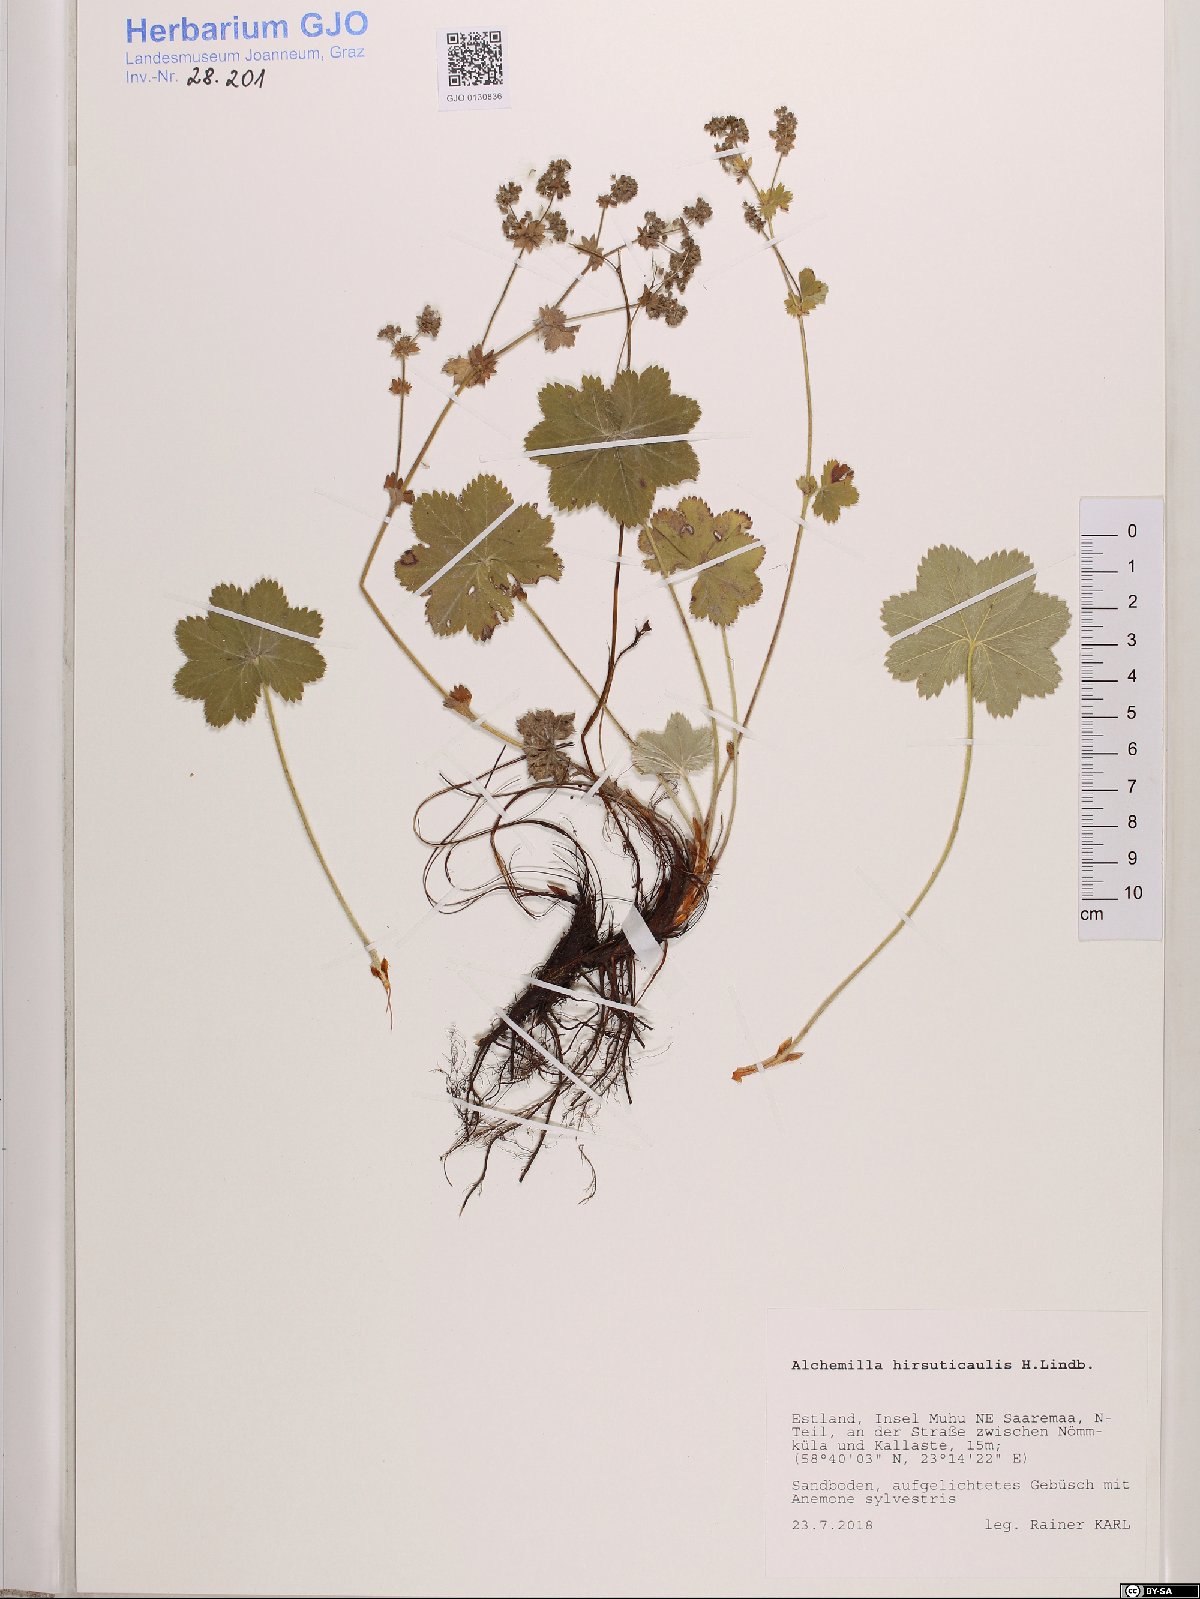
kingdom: Plantae
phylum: Tracheophyta
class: Magnoliopsida
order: Rosales
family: Rosaceae
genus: Alchemilla
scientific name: Alchemilla hirsuticaulis
